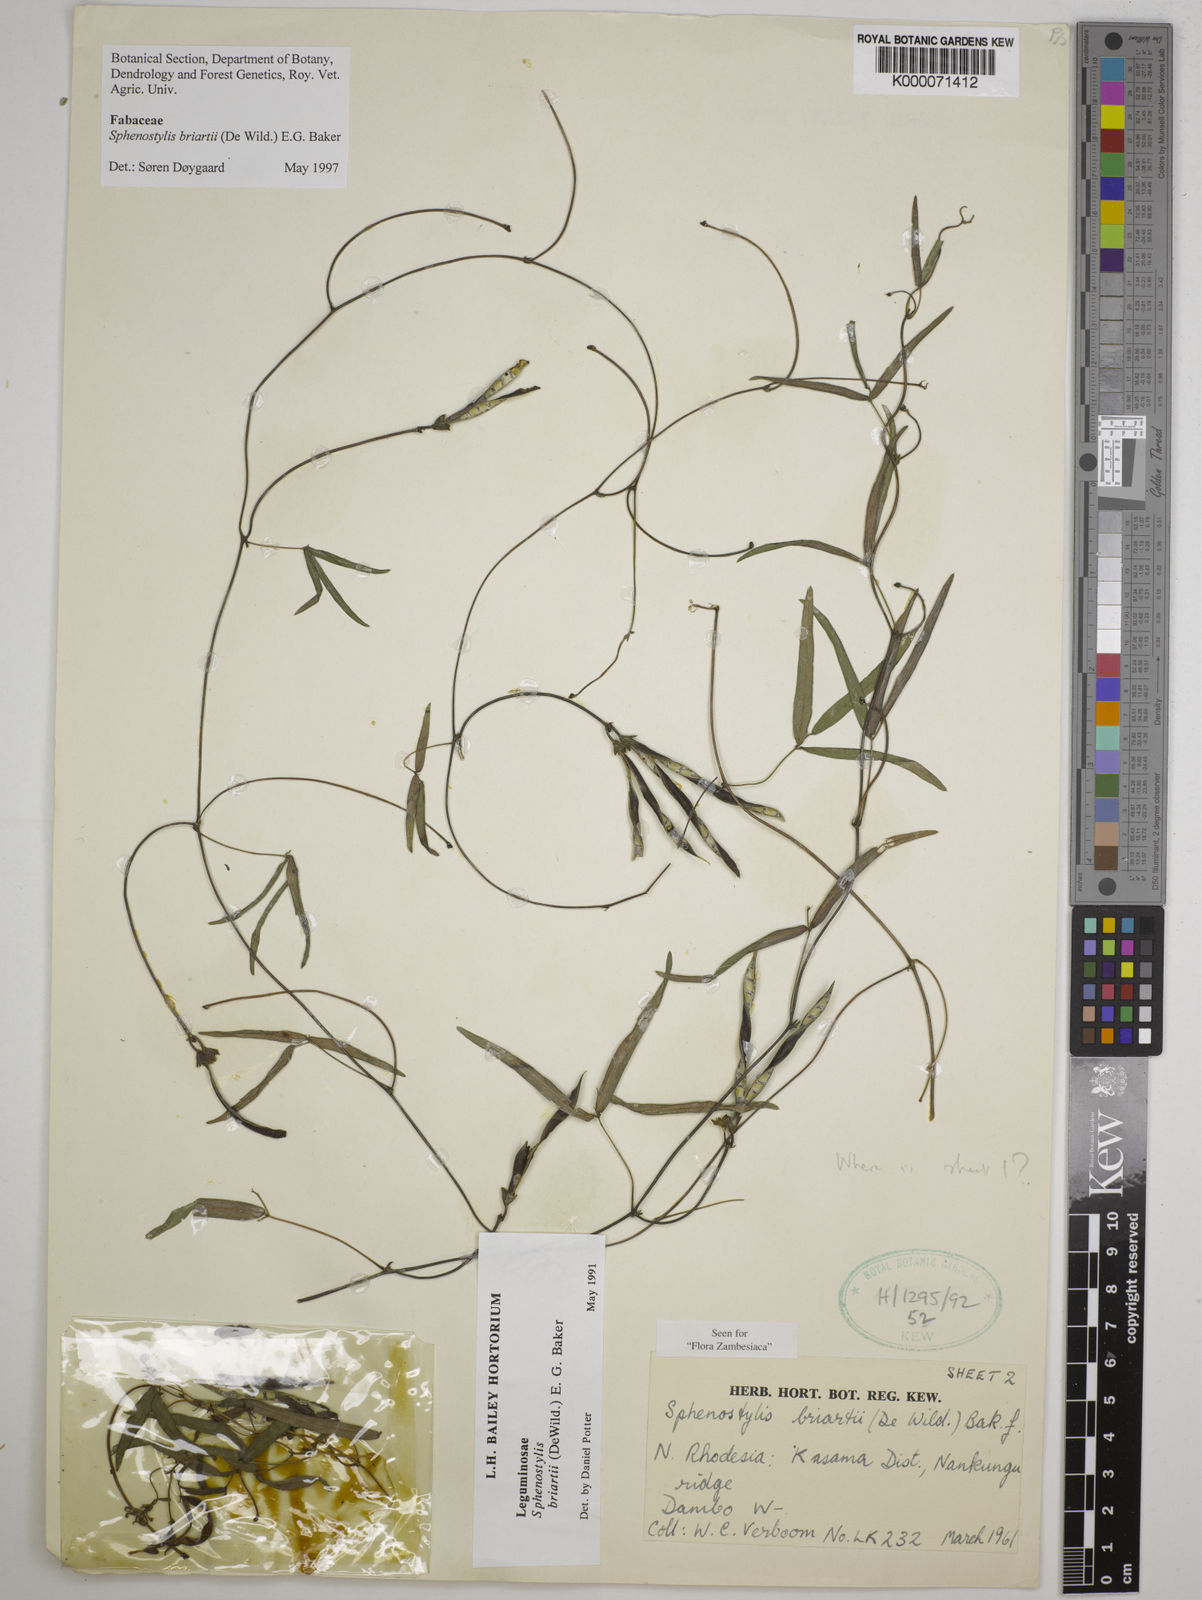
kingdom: Plantae
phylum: Tracheophyta
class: Magnoliopsida
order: Fabales
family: Fabaceae
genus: Sphenostylis
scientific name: Sphenostylis briartii
